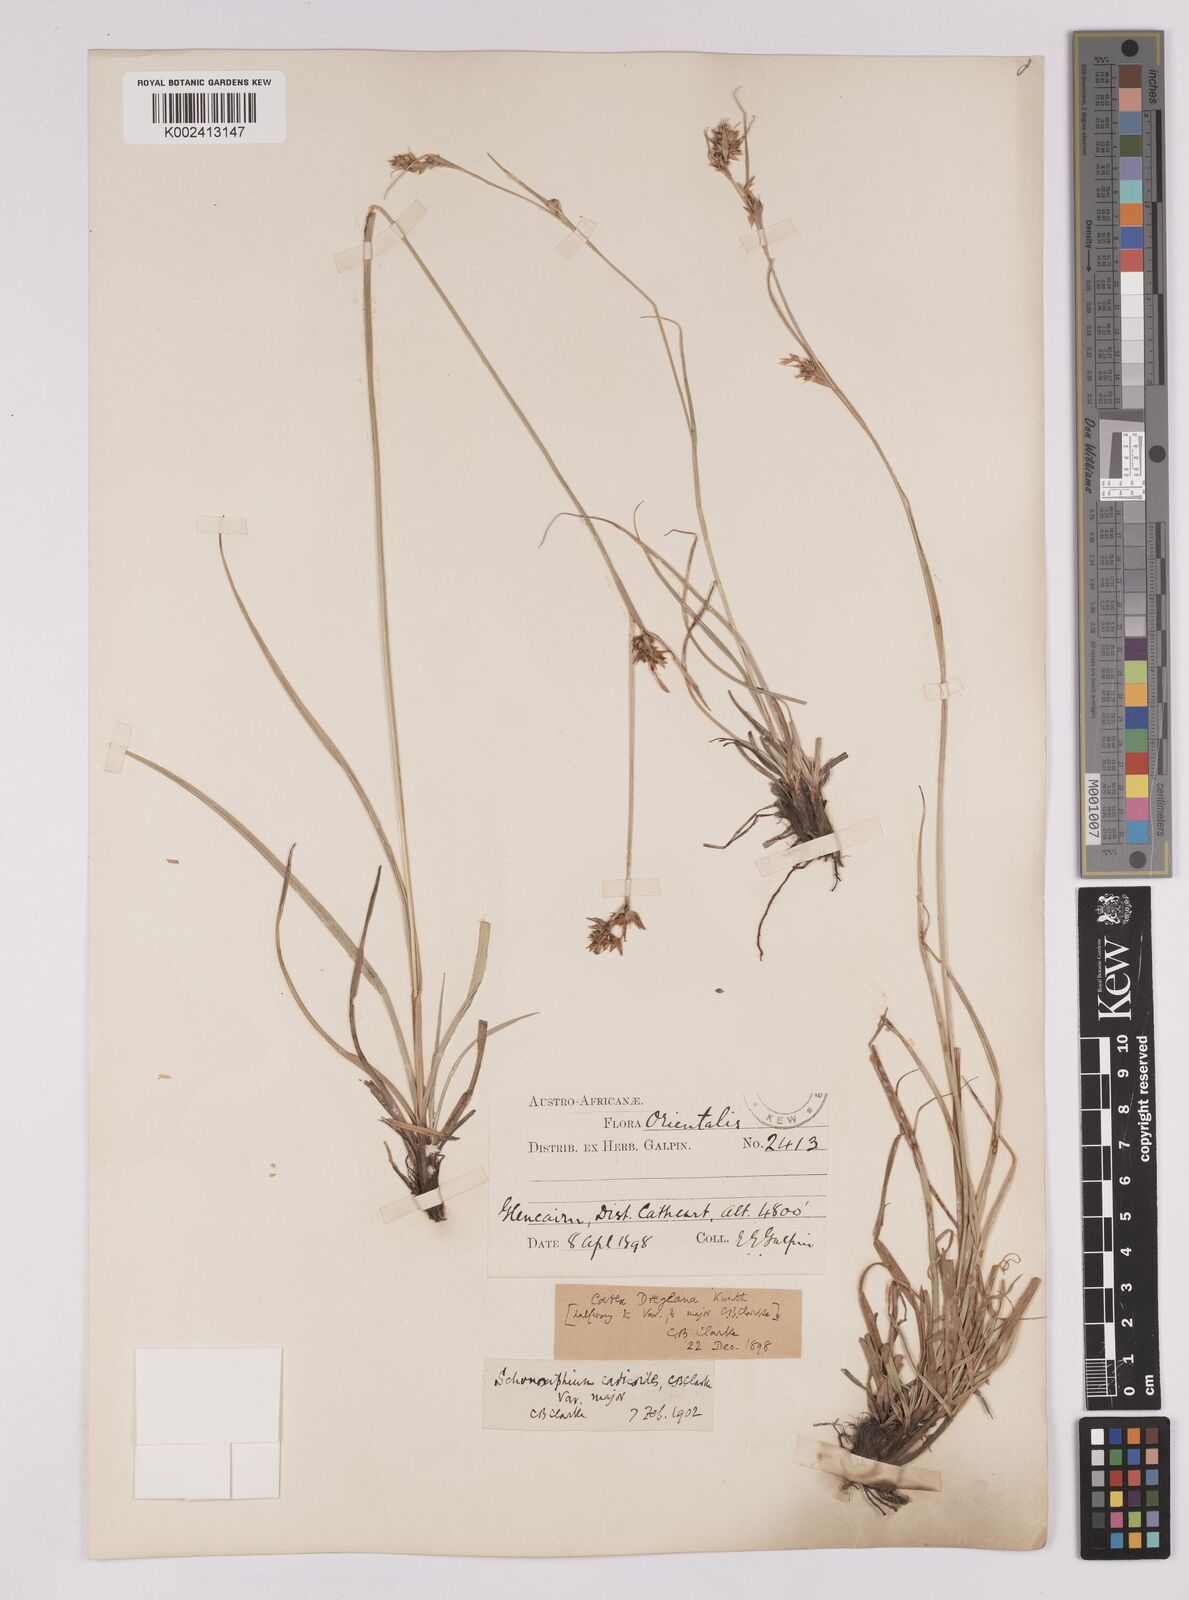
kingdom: Plantae
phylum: Tracheophyta
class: Liliopsida
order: Poales
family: Cyperaceae
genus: Carex
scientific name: Carex spartea
